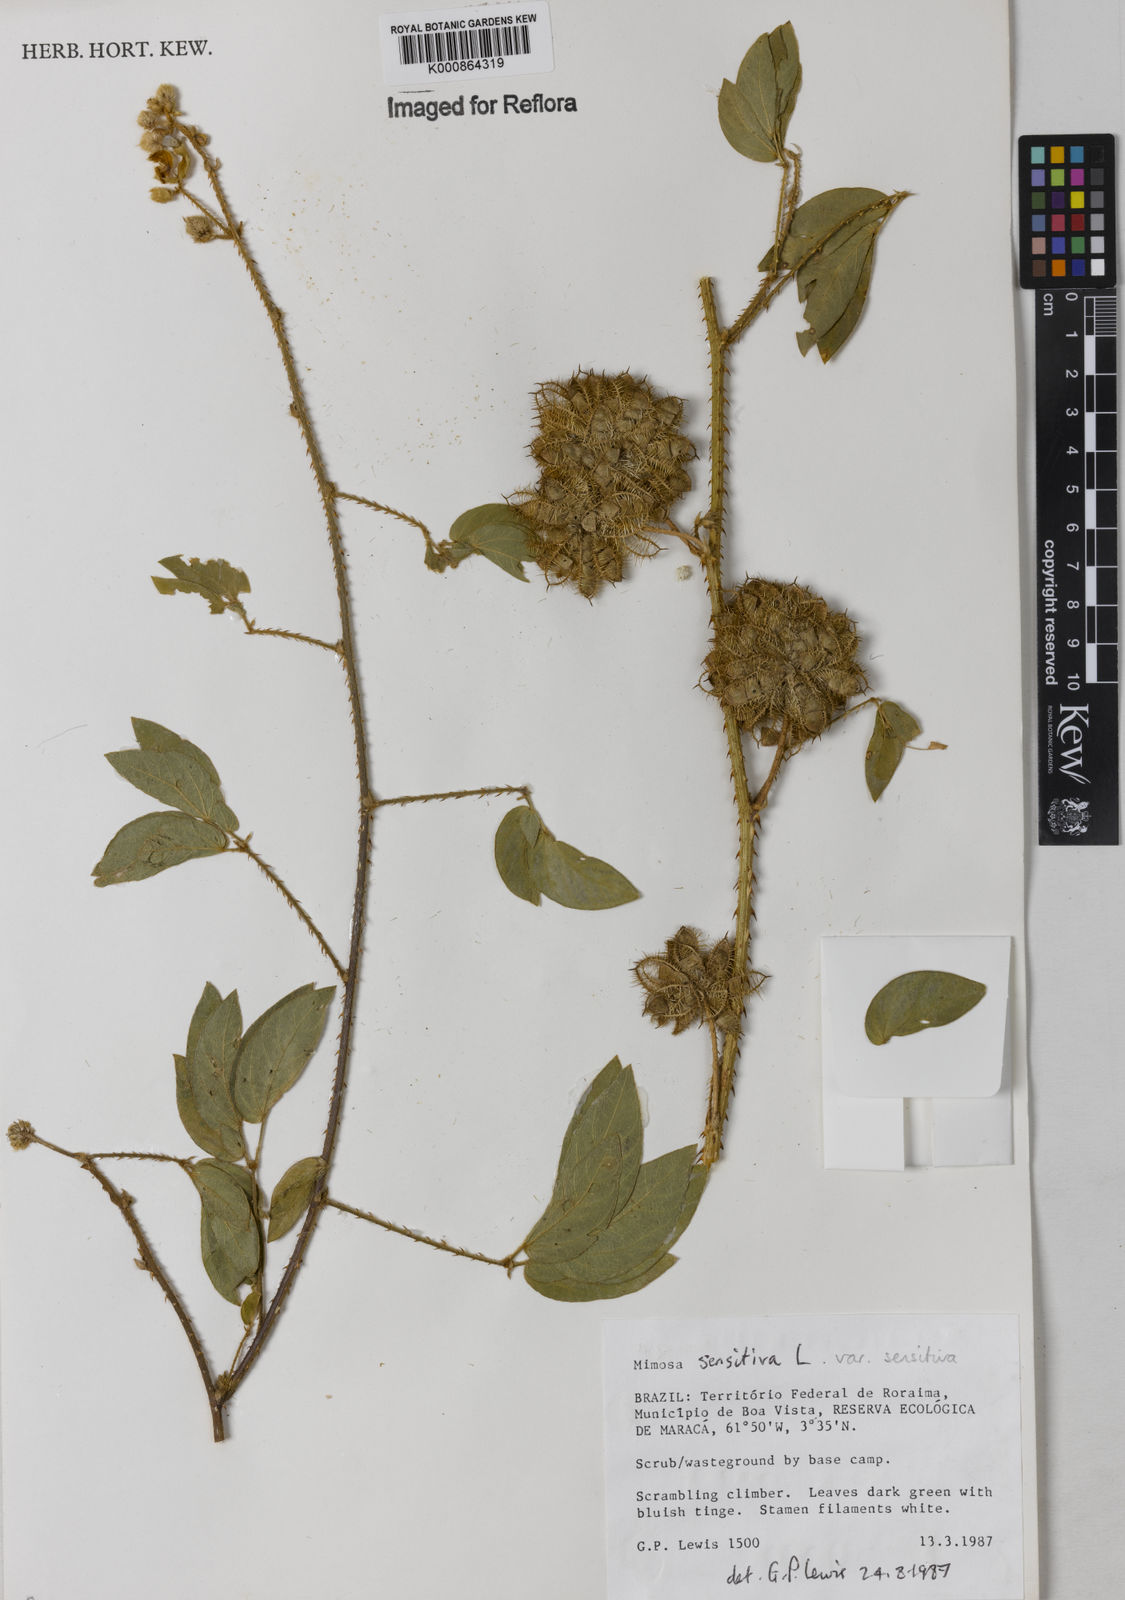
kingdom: Plantae
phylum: Tracheophyta
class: Magnoliopsida
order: Fabales
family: Fabaceae
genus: Mimosa
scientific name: Mimosa sensitiva
